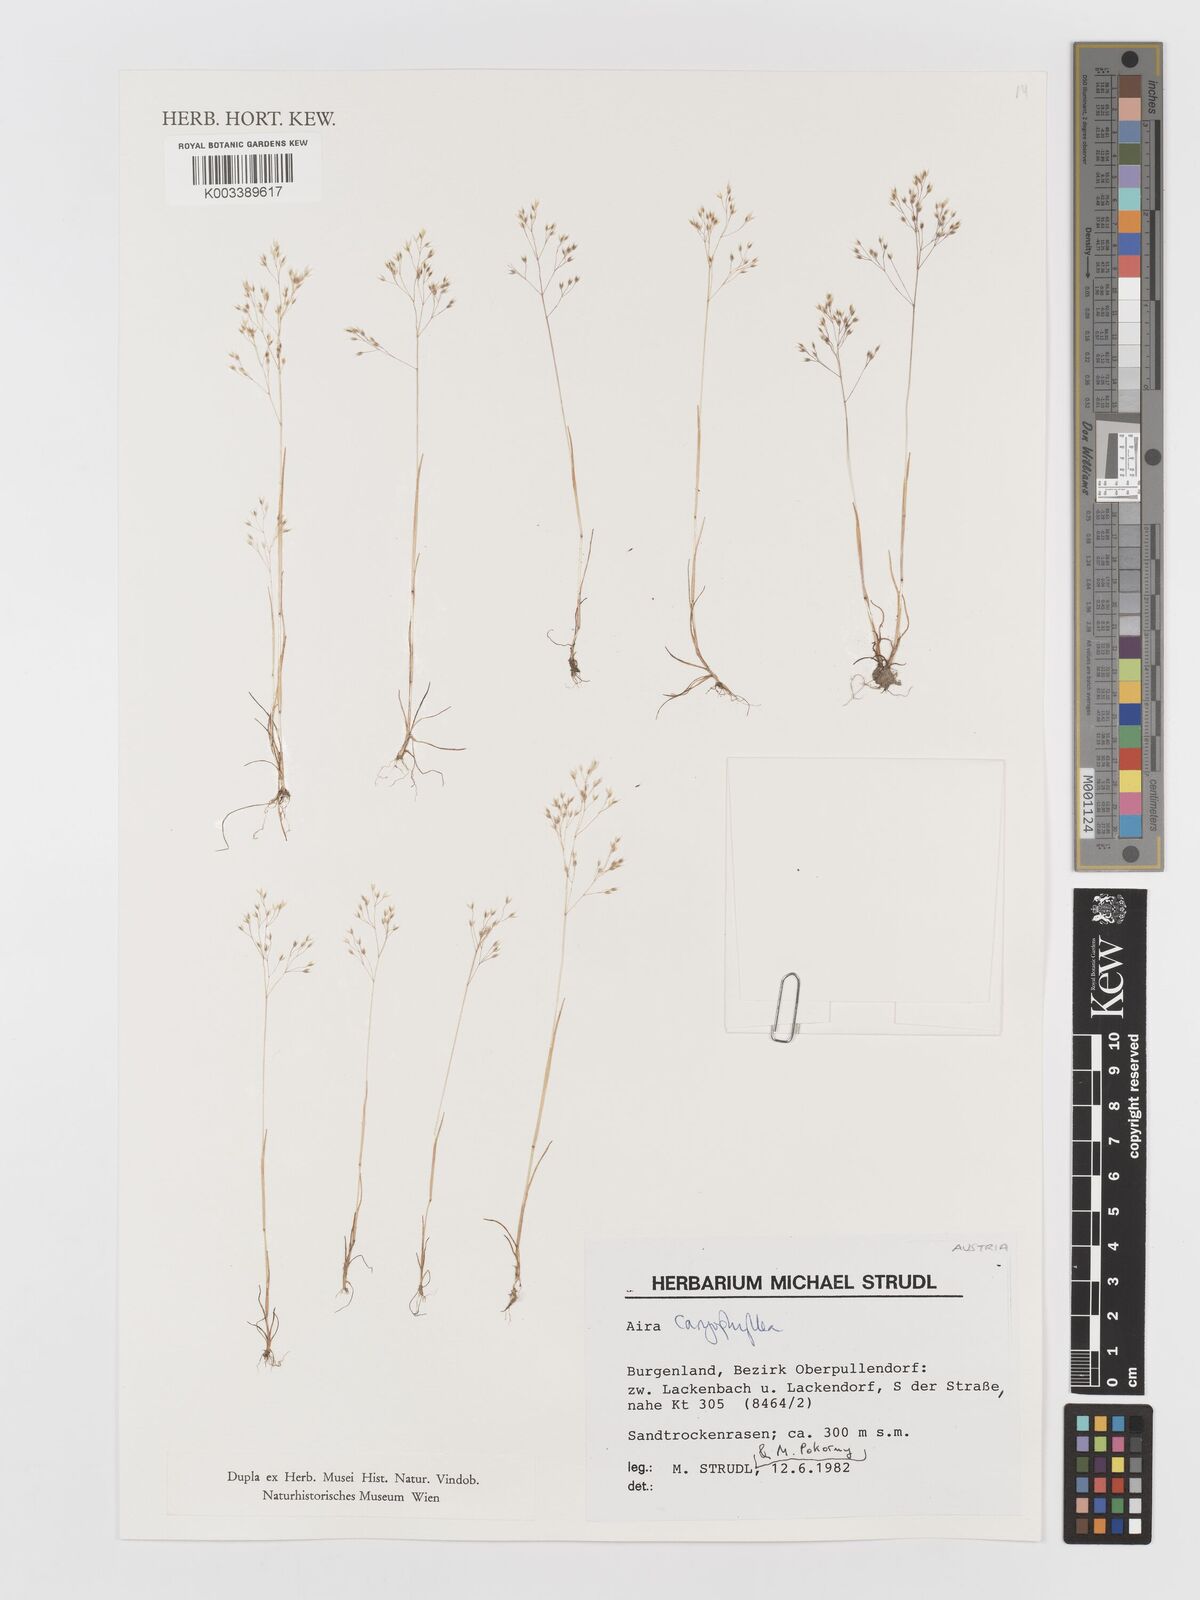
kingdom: Plantae
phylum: Tracheophyta
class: Liliopsida
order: Poales
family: Poaceae
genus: Aira
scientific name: Aira caryophyllea
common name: Silver hairgrass
